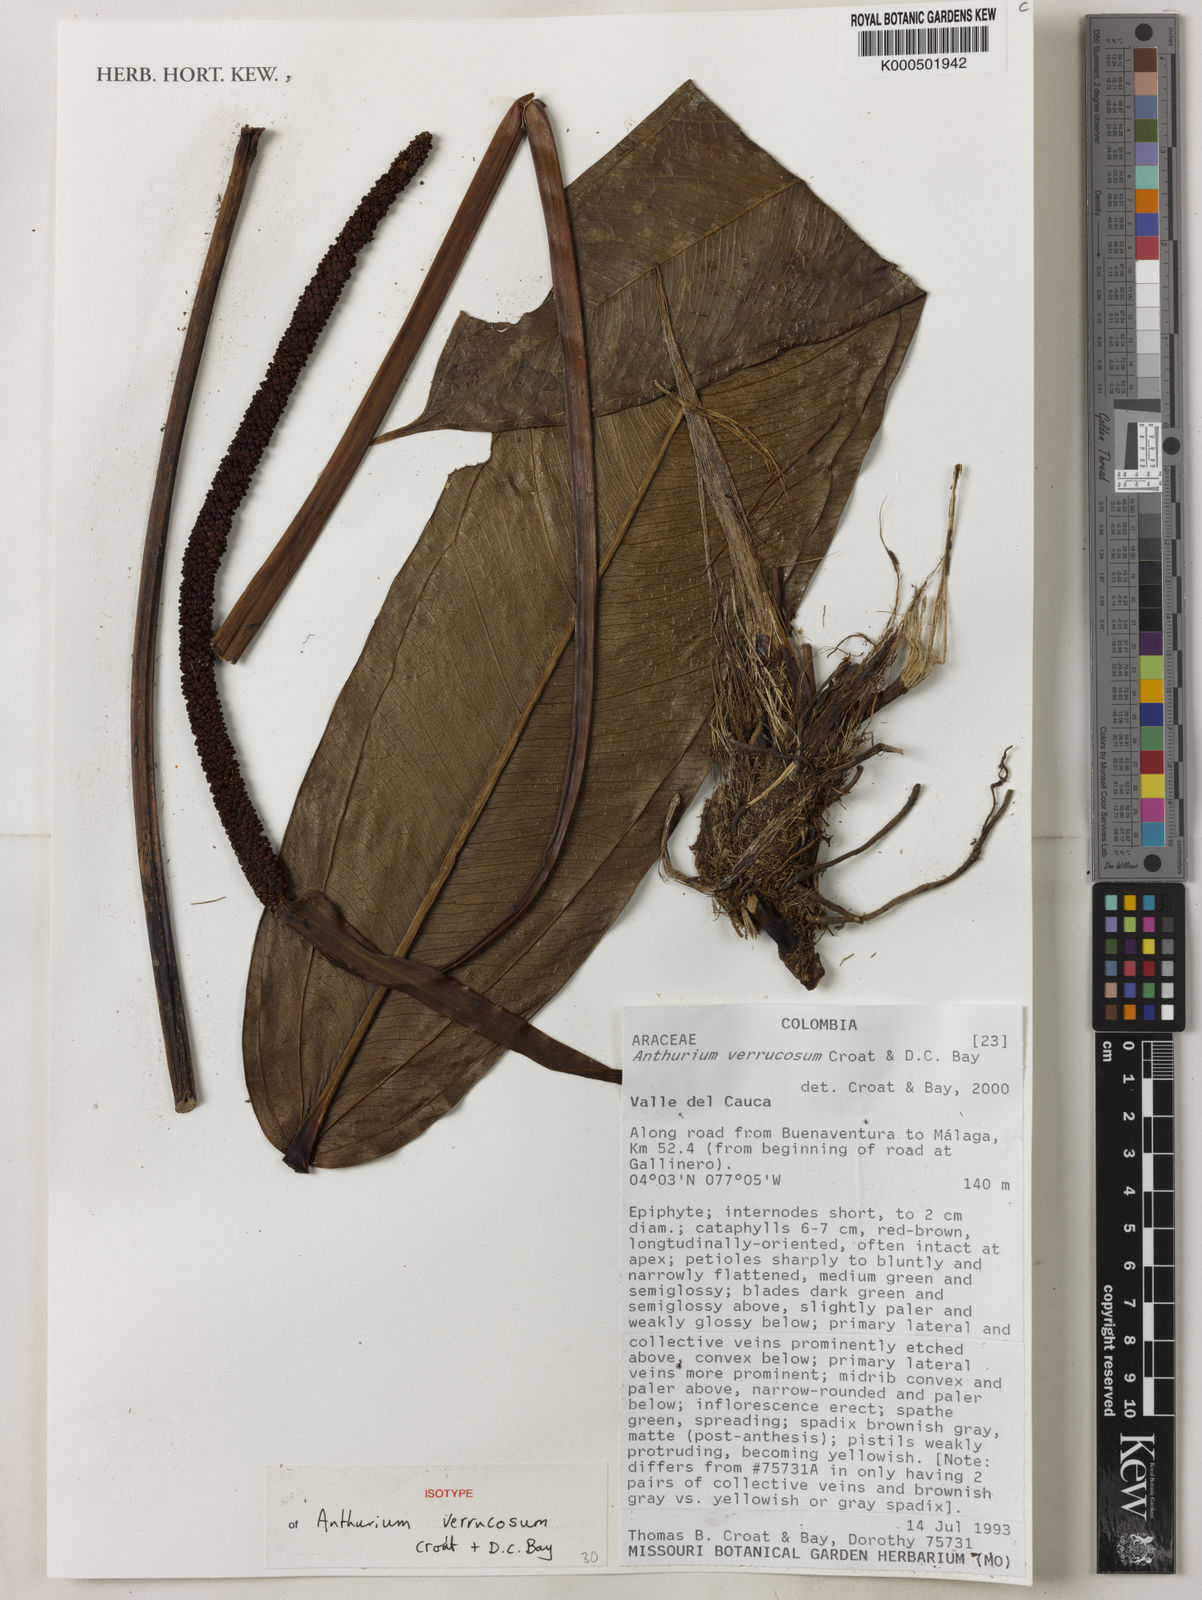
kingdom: Plantae
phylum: Tracheophyta
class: Liliopsida
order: Alismatales
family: Araceae
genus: Anthurium
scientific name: Anthurium verrucosum
